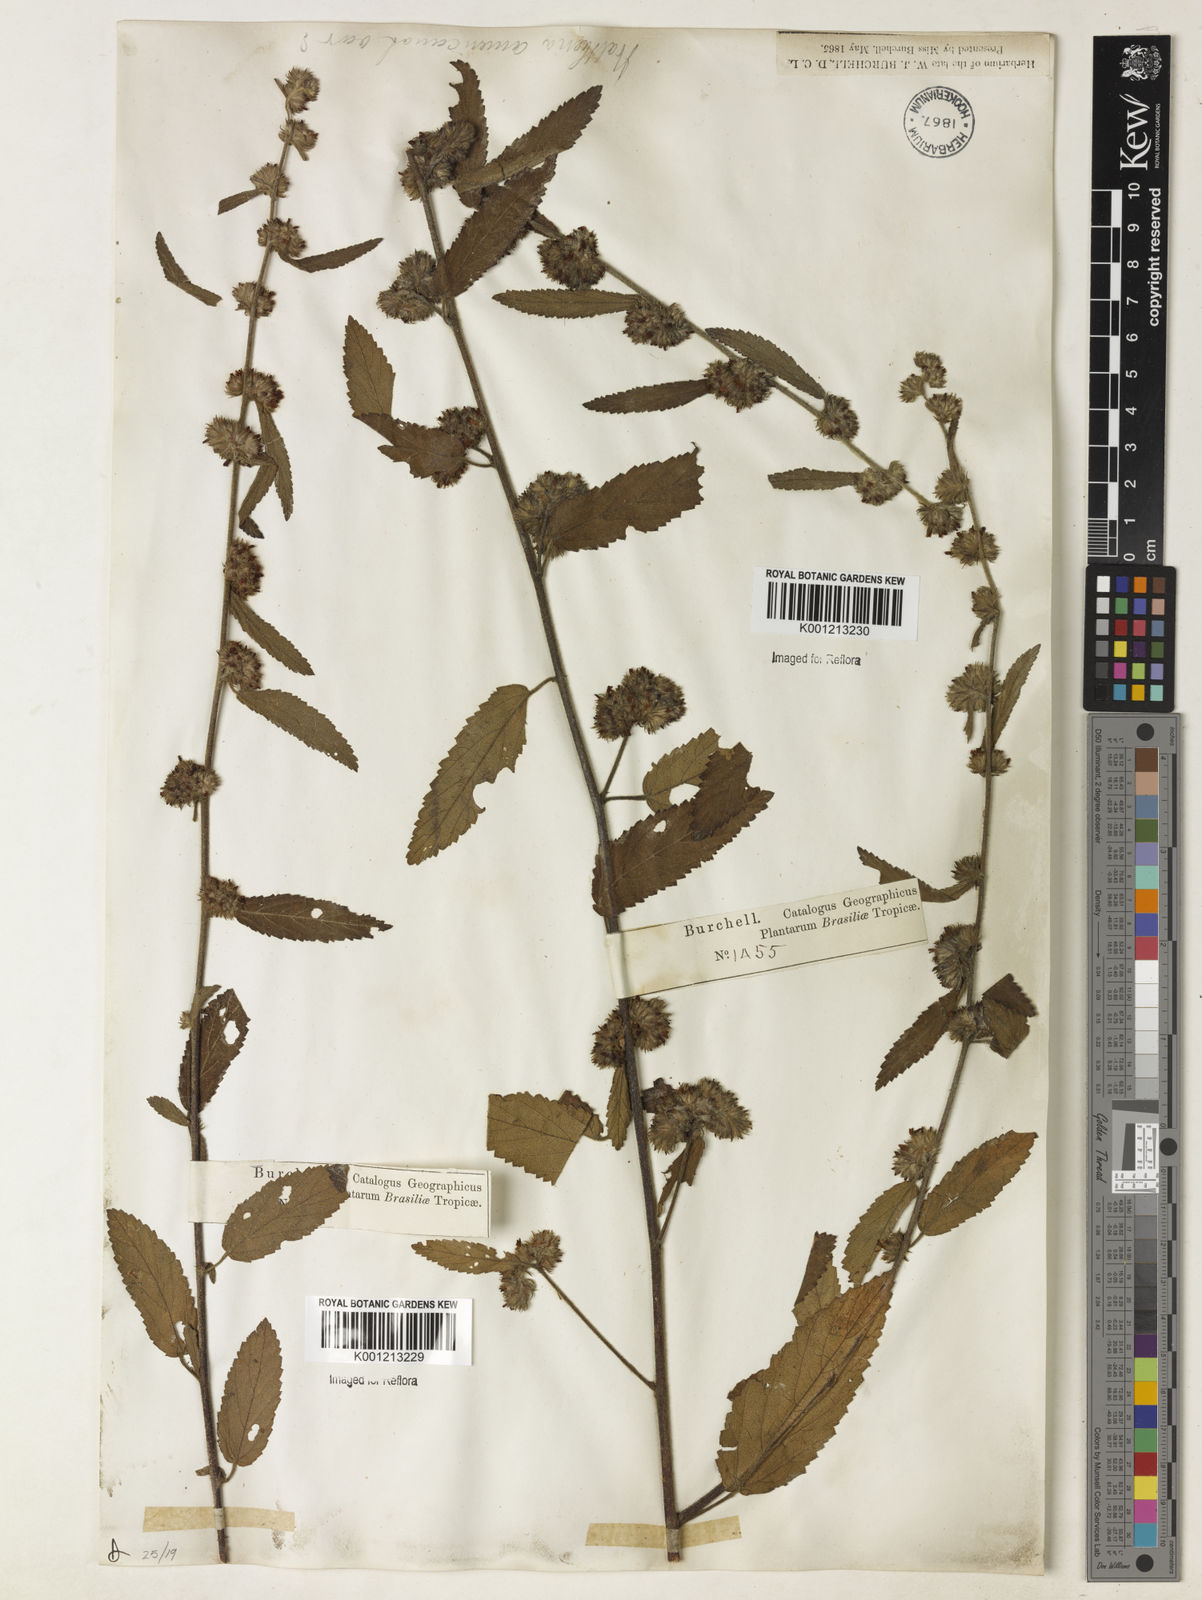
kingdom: Plantae
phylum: Tracheophyta
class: Magnoliopsida
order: Malvales
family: Malvaceae
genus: Waltheria
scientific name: Waltheria indica
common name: Leather-coat
